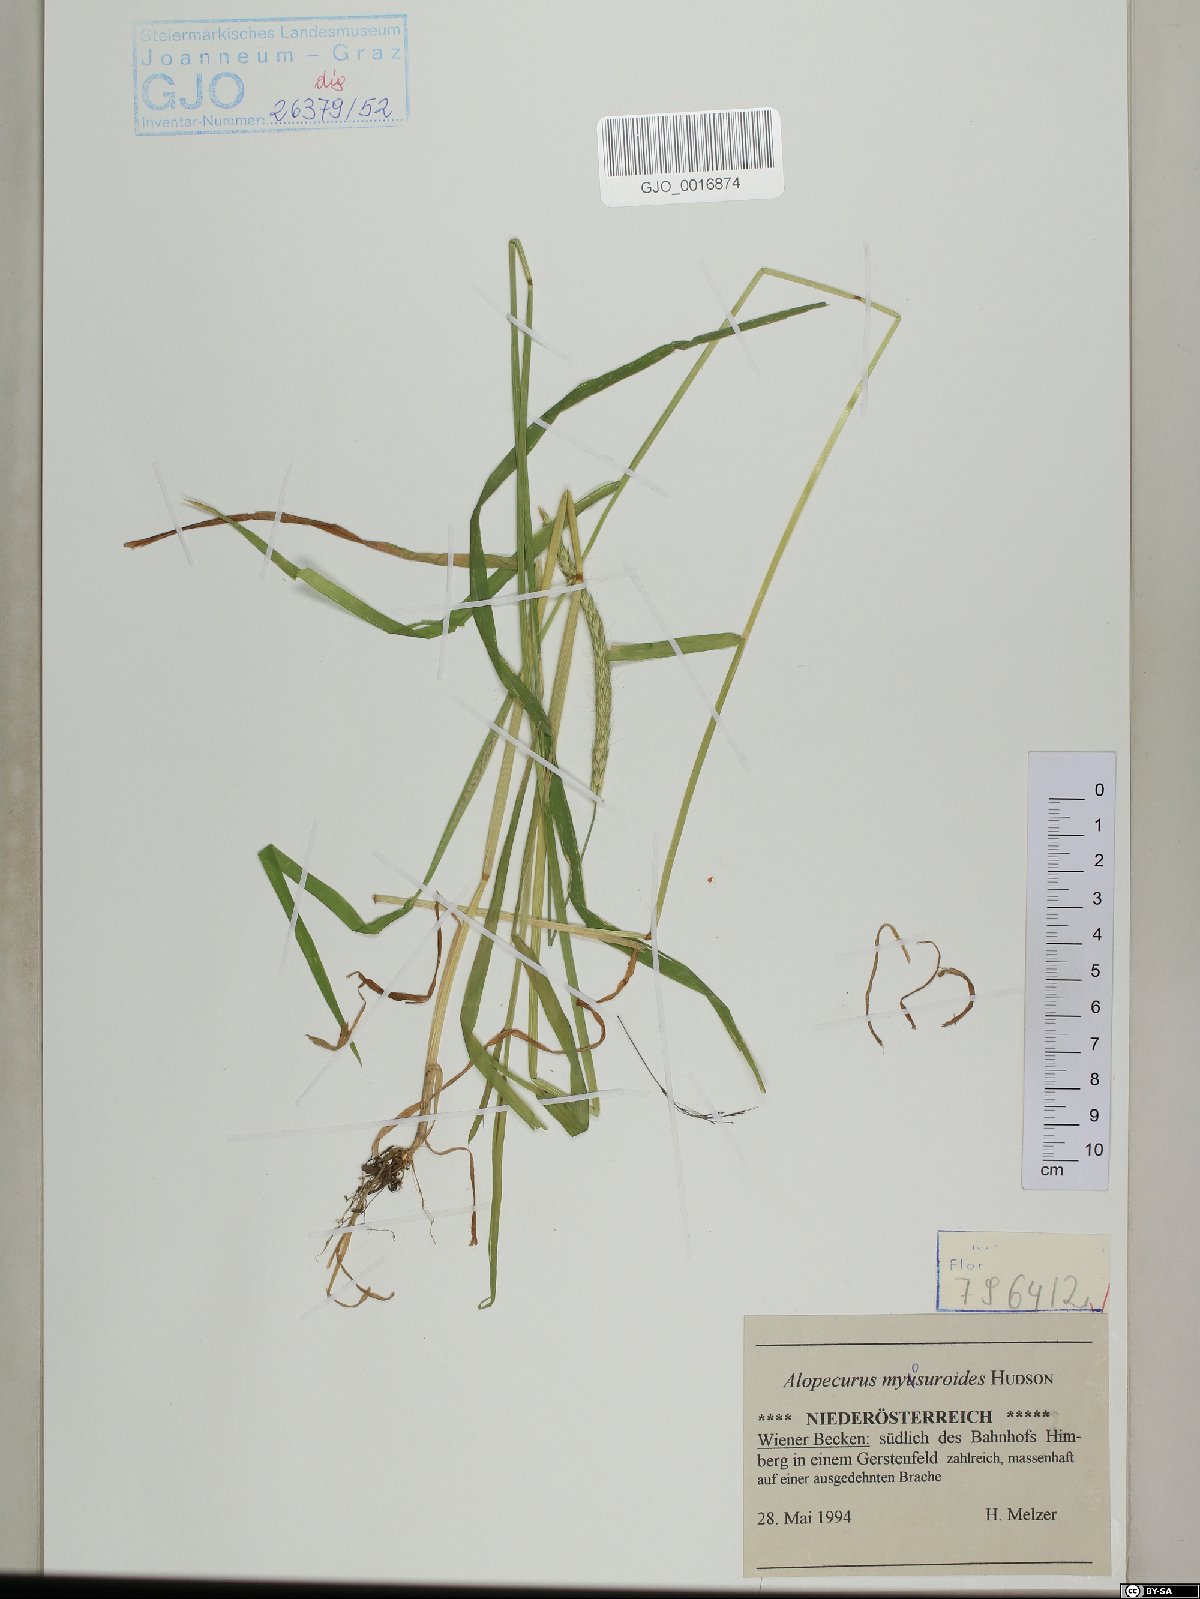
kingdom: Plantae
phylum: Tracheophyta
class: Liliopsida
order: Poales
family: Poaceae
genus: Alopecurus
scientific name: Alopecurus myosuroides
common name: Black-grass
